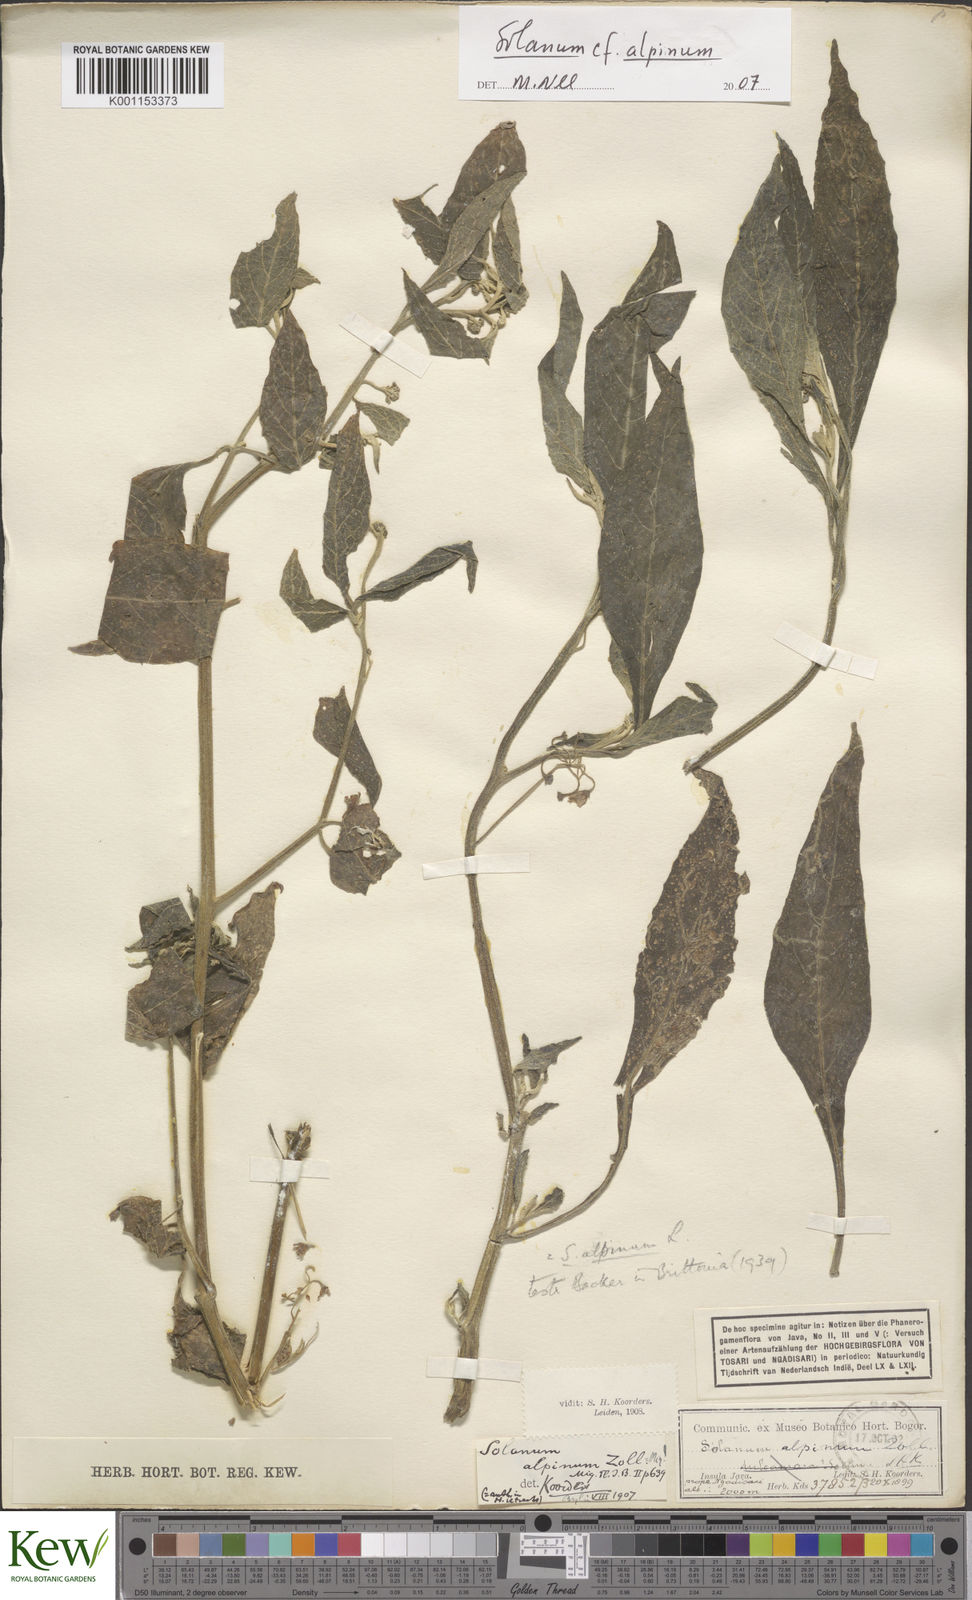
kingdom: Plantae
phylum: Tracheophyta
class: Magnoliopsida
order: Solanales
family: Solanaceae
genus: Solanum
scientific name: Solanum alpinum
